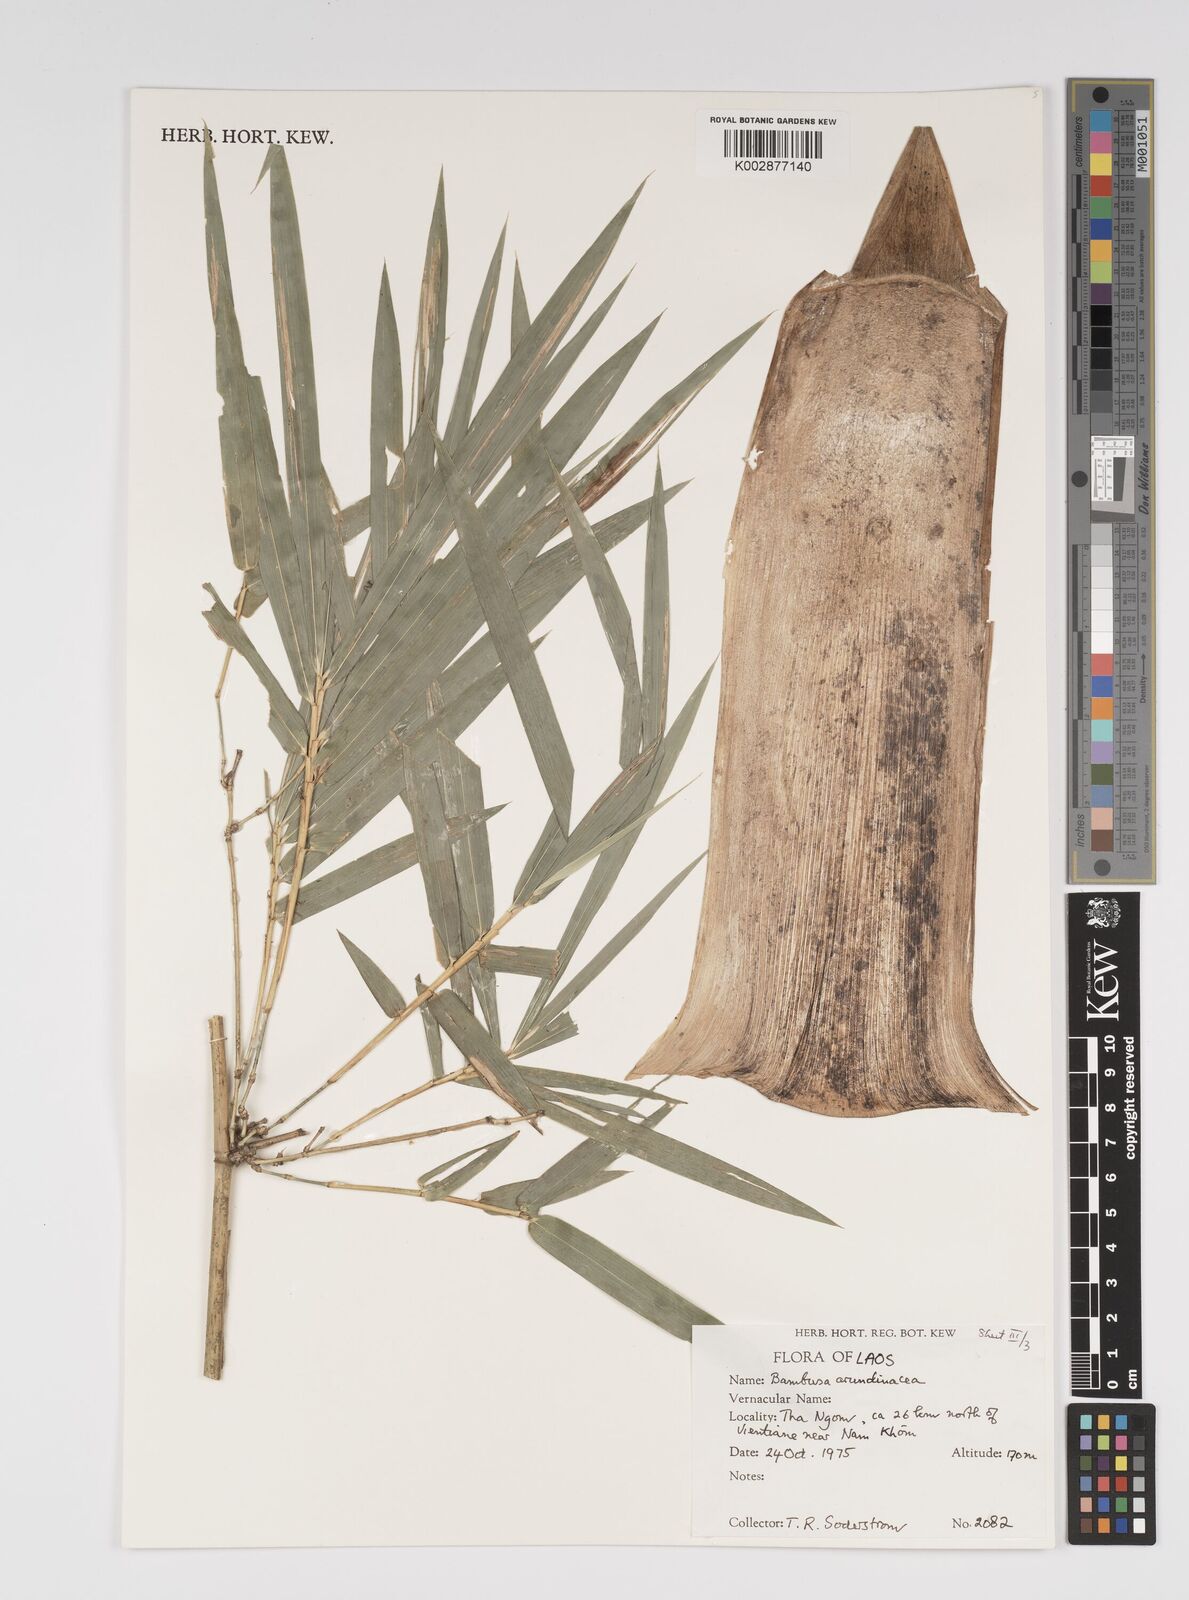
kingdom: Plantae
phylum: Tracheophyta
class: Liliopsida
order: Poales
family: Poaceae
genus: Bambusa
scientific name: Bambusa bambos
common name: Indian thorny bamboo
